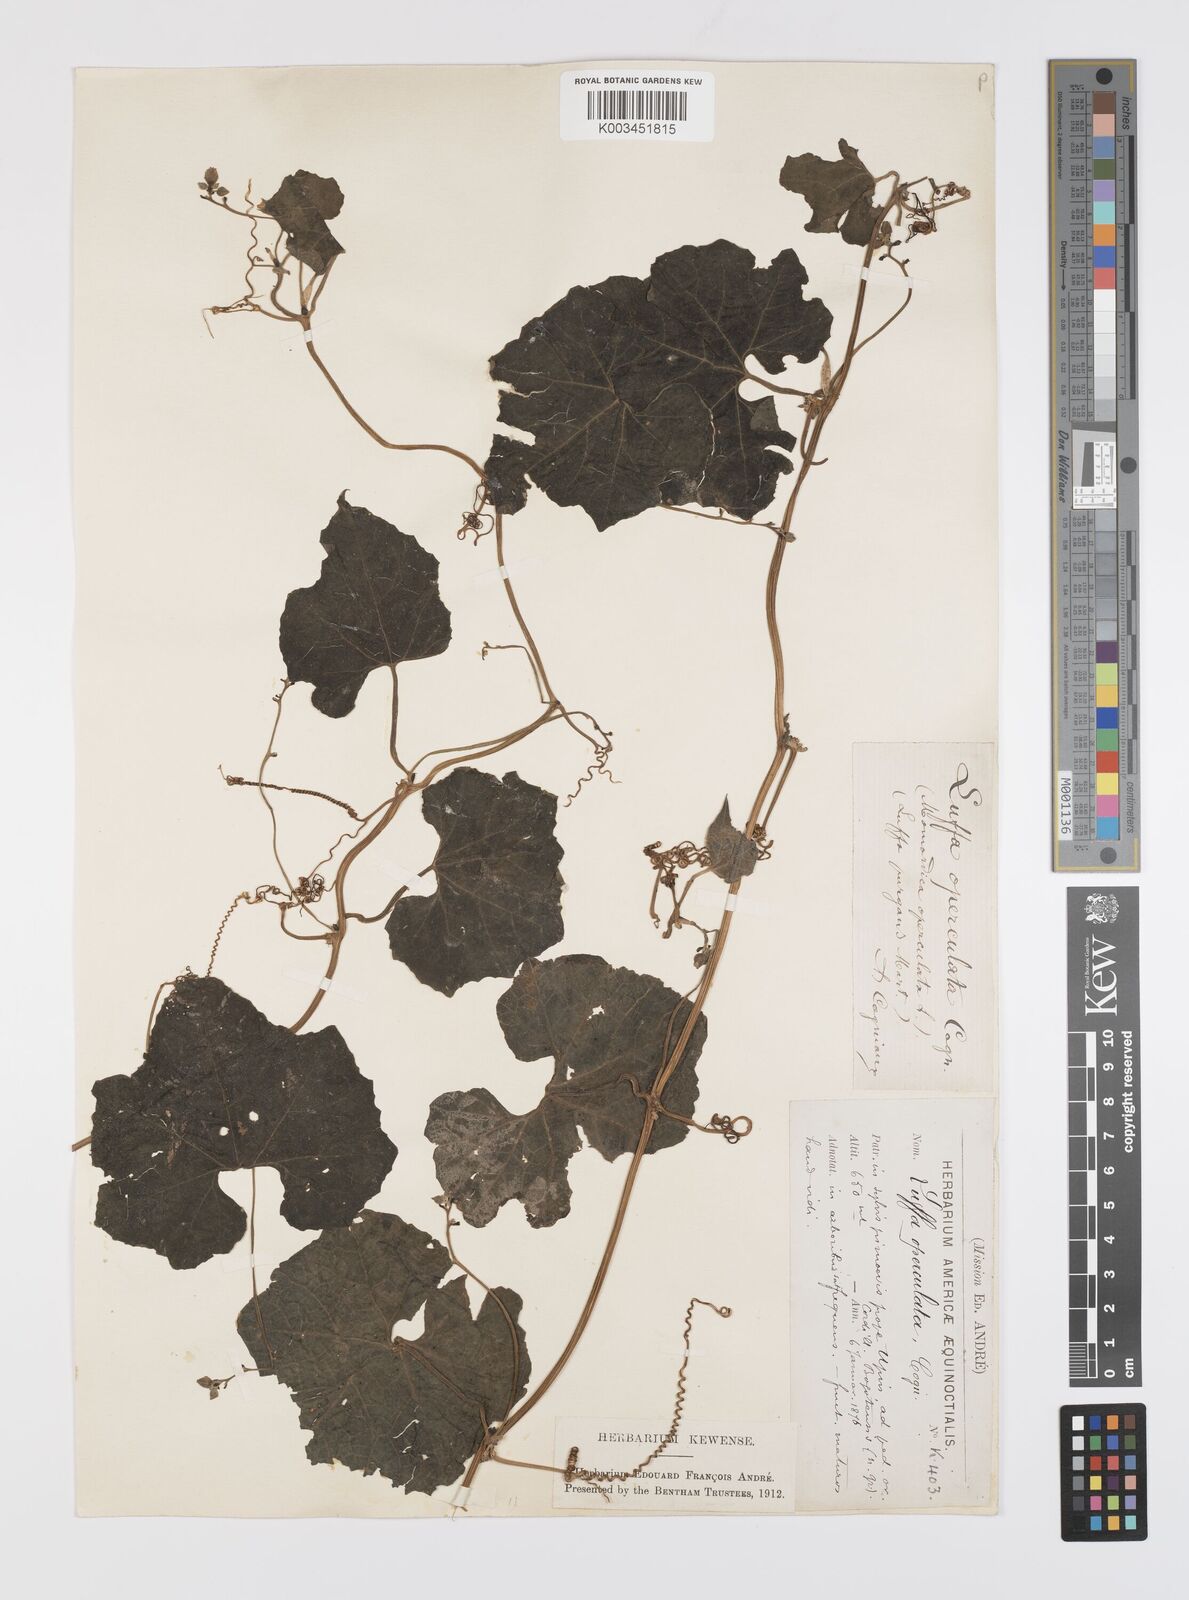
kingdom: Plantae
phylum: Tracheophyta
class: Magnoliopsida
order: Cucurbitales
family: Cucurbitaceae
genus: Luffa
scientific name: Luffa operculata
